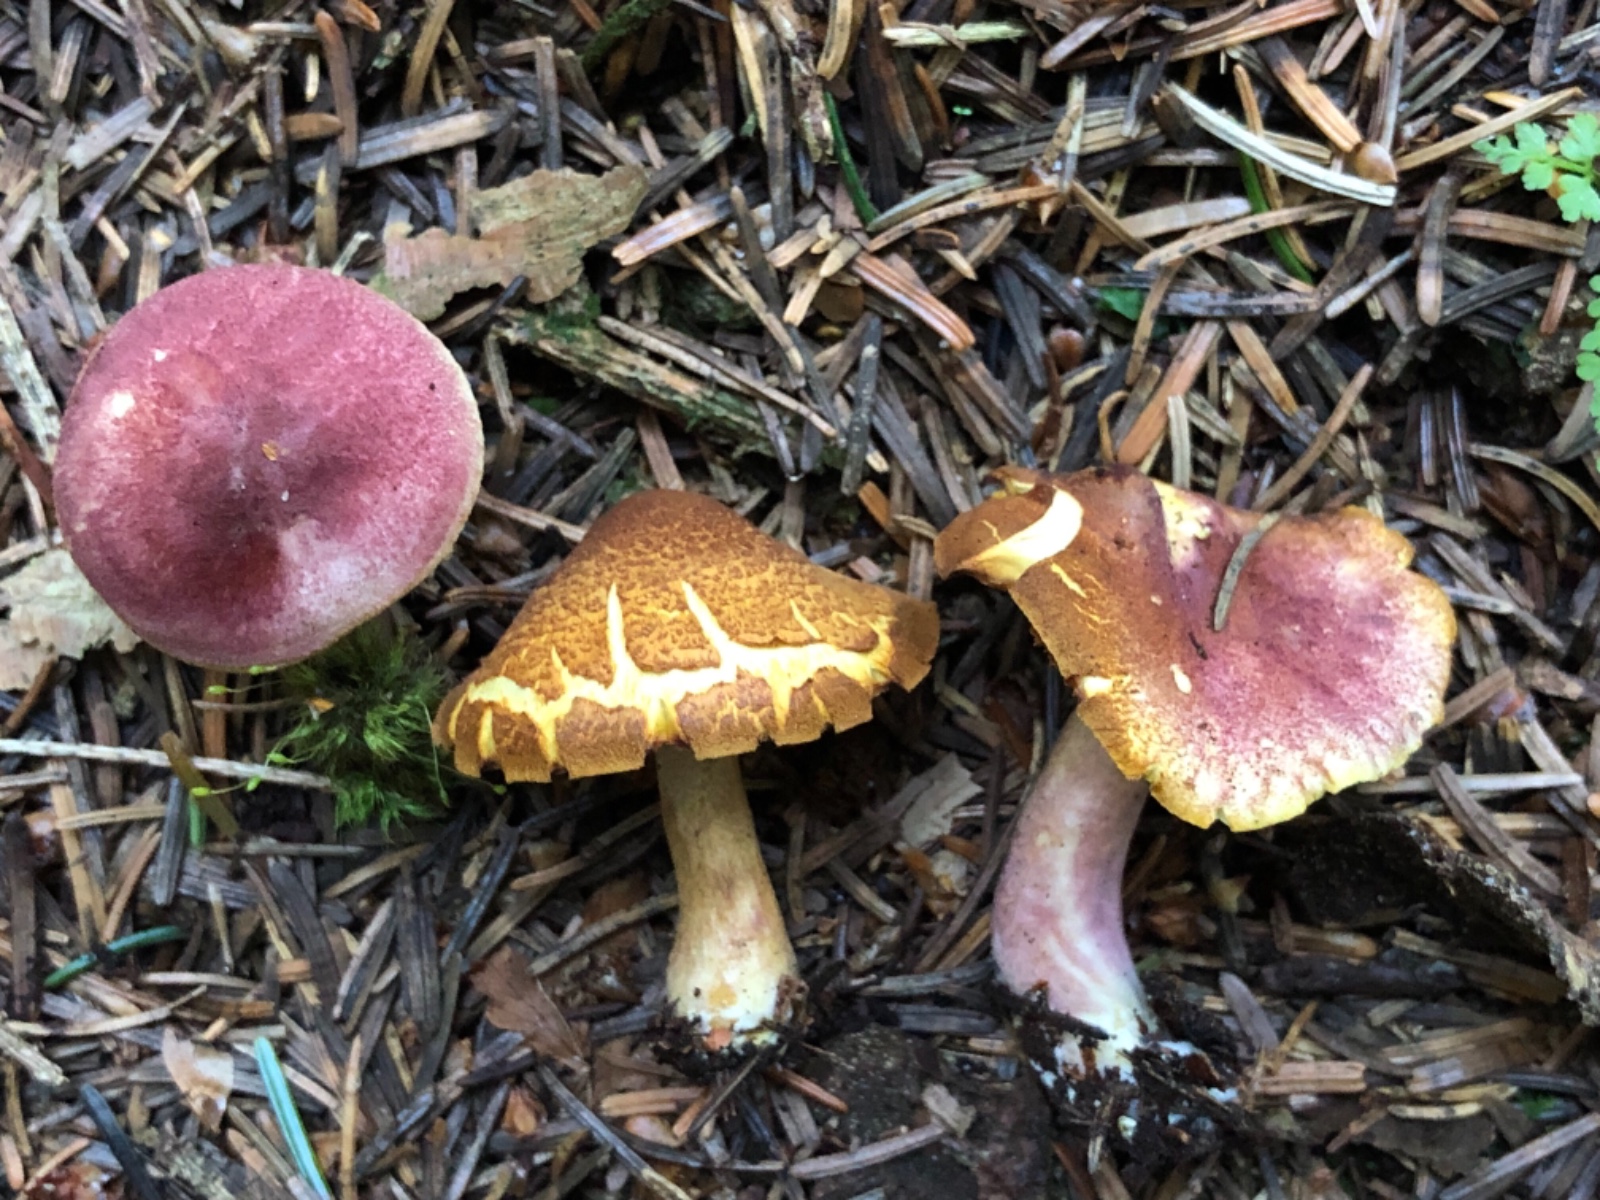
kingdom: Fungi
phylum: Basidiomycota
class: Agaricomycetes
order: Agaricales
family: Tricholomataceae
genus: Tricholomopsis
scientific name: Tricholomopsis rutilans
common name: purpur-væbnerhat
